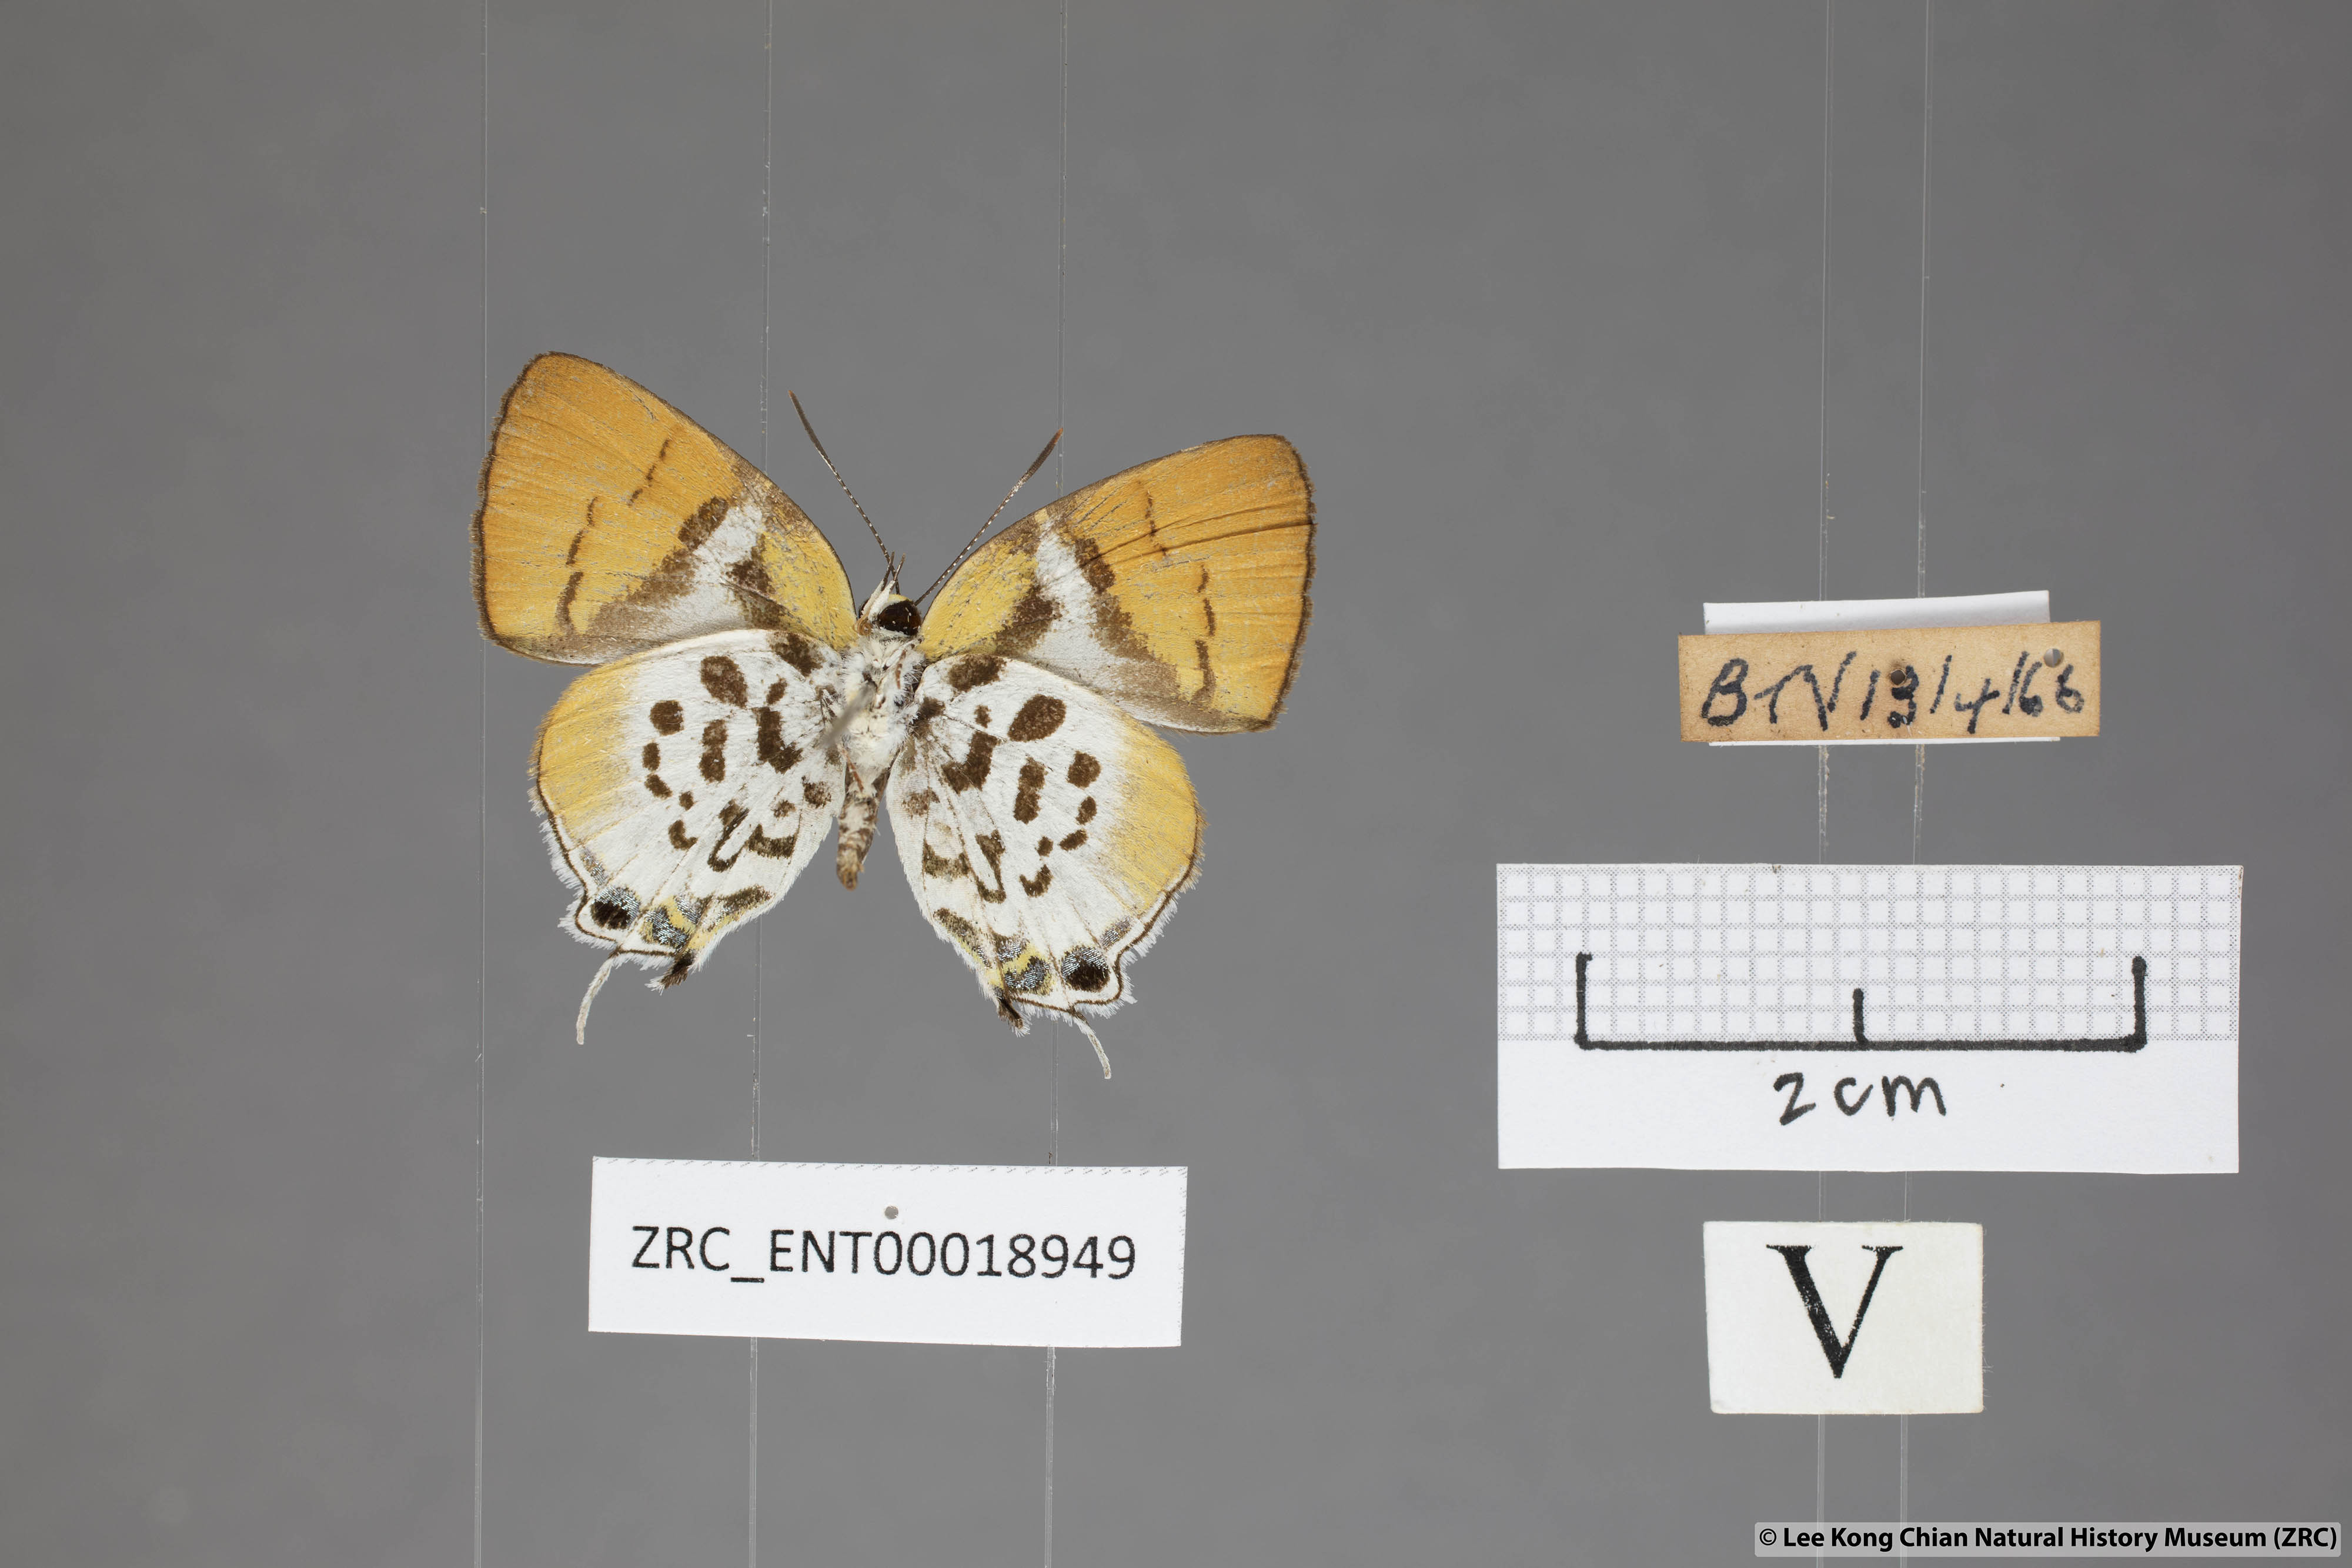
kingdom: Animalia
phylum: Arthropoda
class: Insecta
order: Lepidoptera
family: Lycaenidae
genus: Araotes
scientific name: Araotes lapithis
